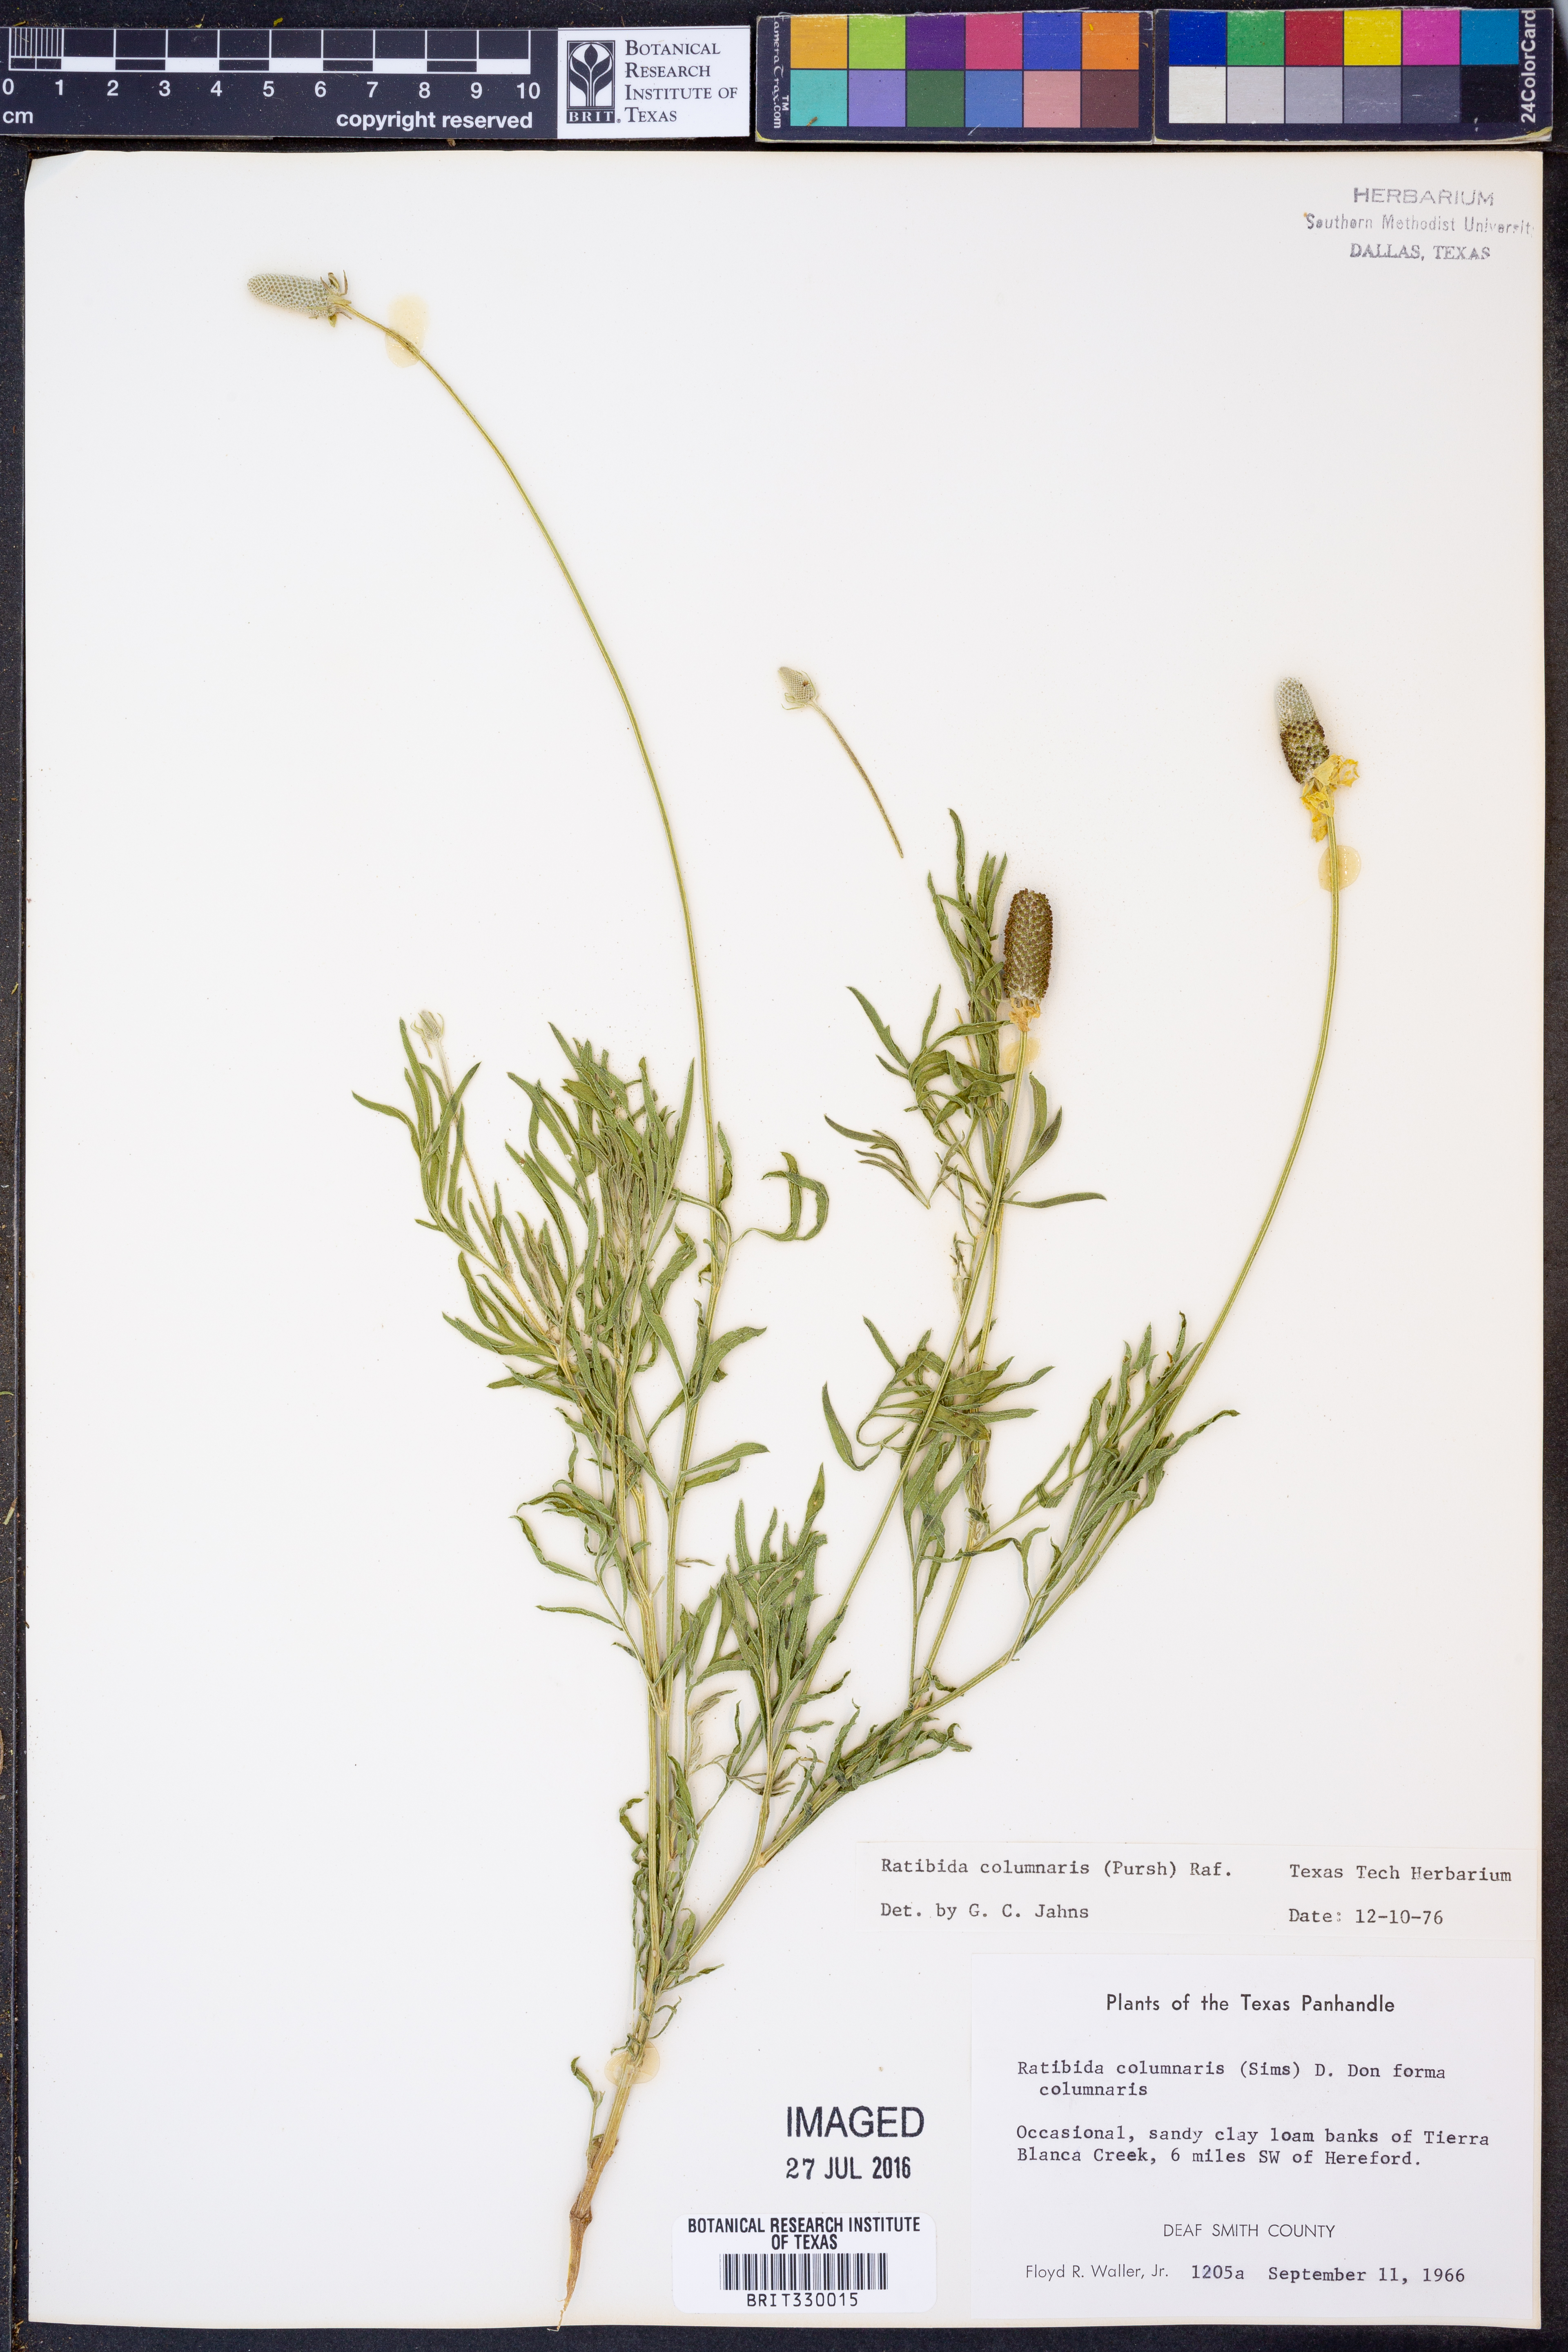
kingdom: Plantae
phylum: Tracheophyta
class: Magnoliopsida
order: Asterales
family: Asteraceae
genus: Ratibida
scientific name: Ratibida columnifera
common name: Prairie coneflower
